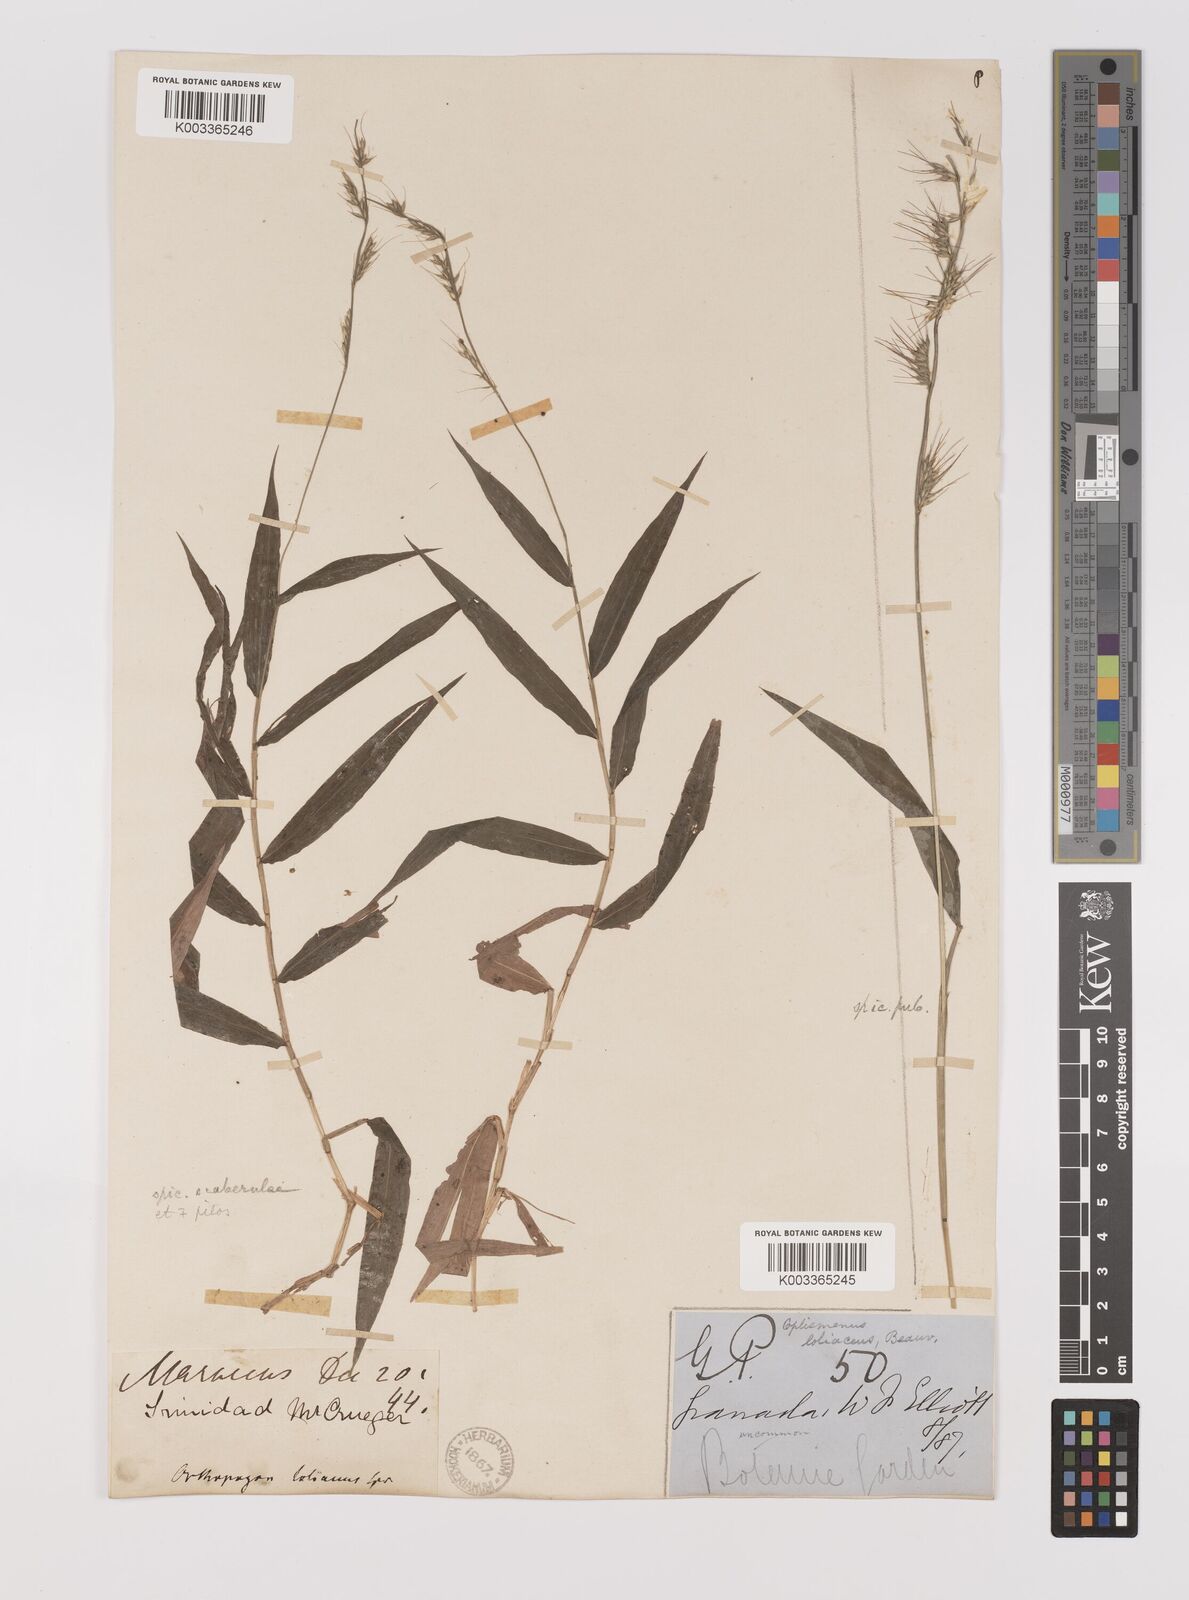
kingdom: Plantae
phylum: Tracheophyta
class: Liliopsida
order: Poales
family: Poaceae
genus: Oplismenus
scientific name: Oplismenus hirtellus
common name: Basketgrass
